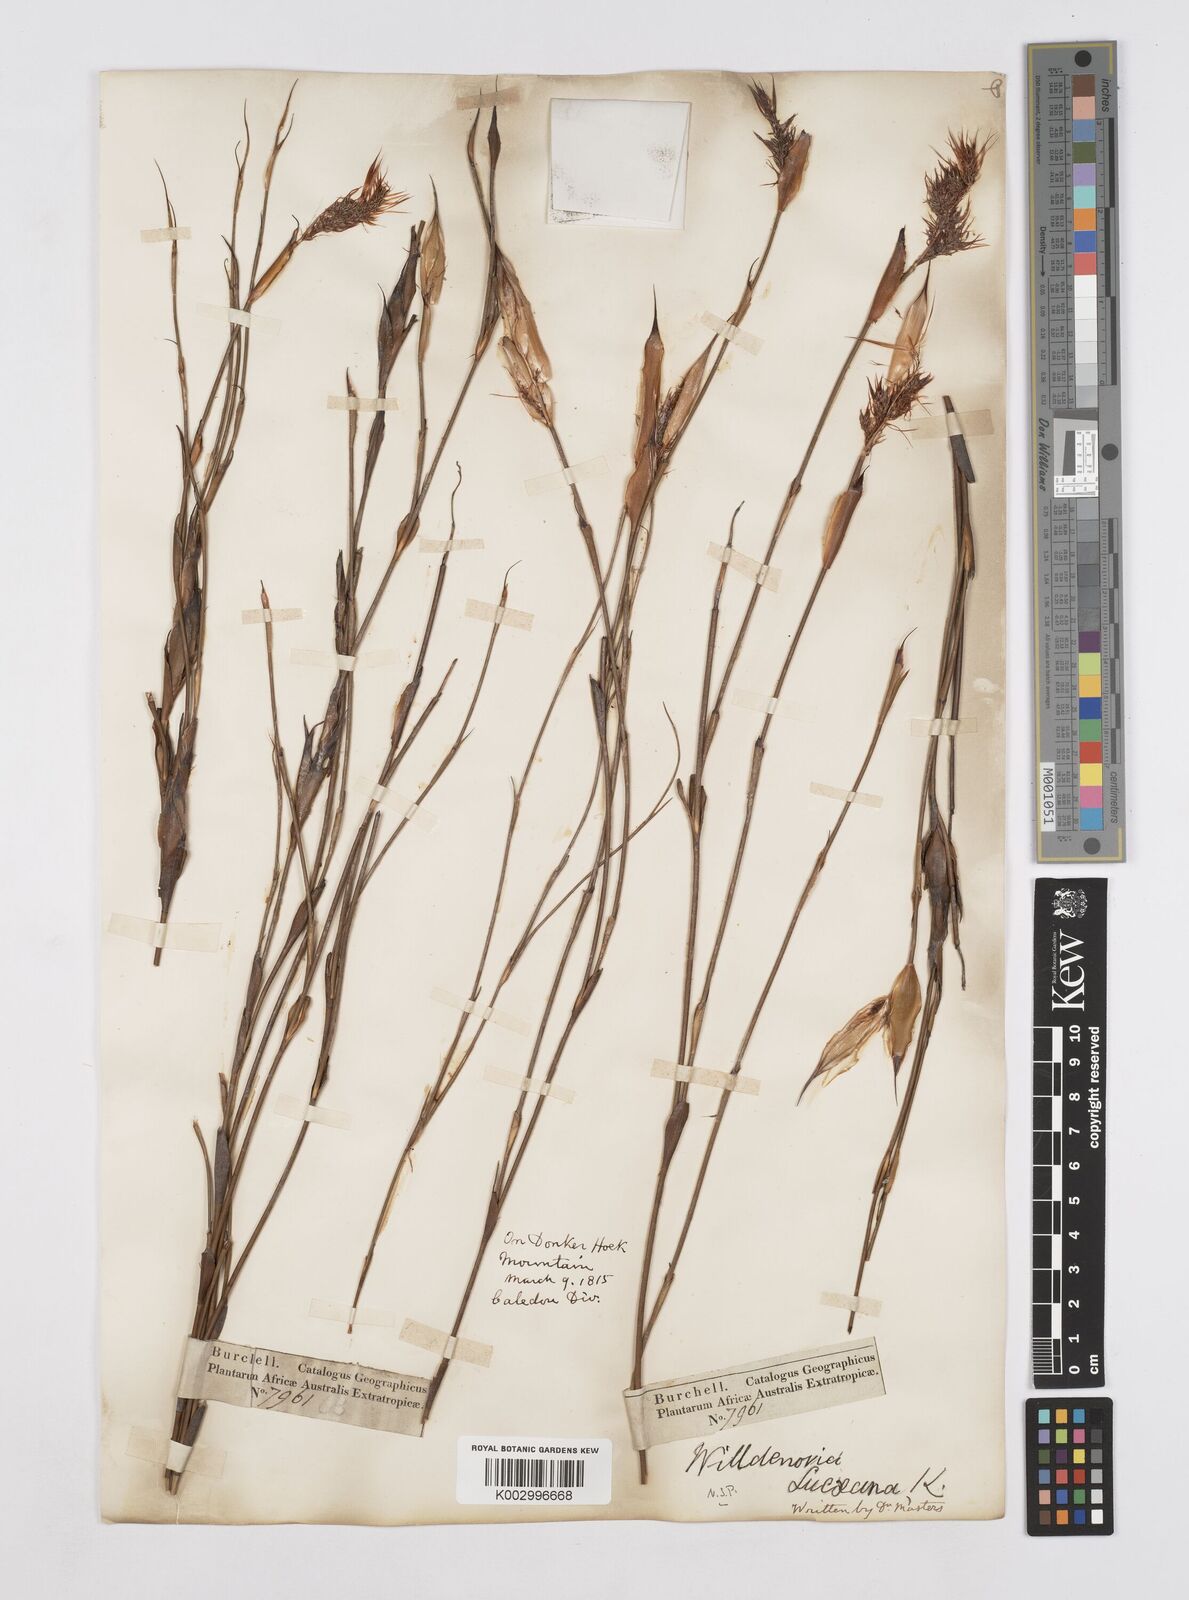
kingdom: Plantae
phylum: Tracheophyta
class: Liliopsida
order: Poales
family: Restionaceae
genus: Willdenowia
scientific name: Willdenowia glomerata
